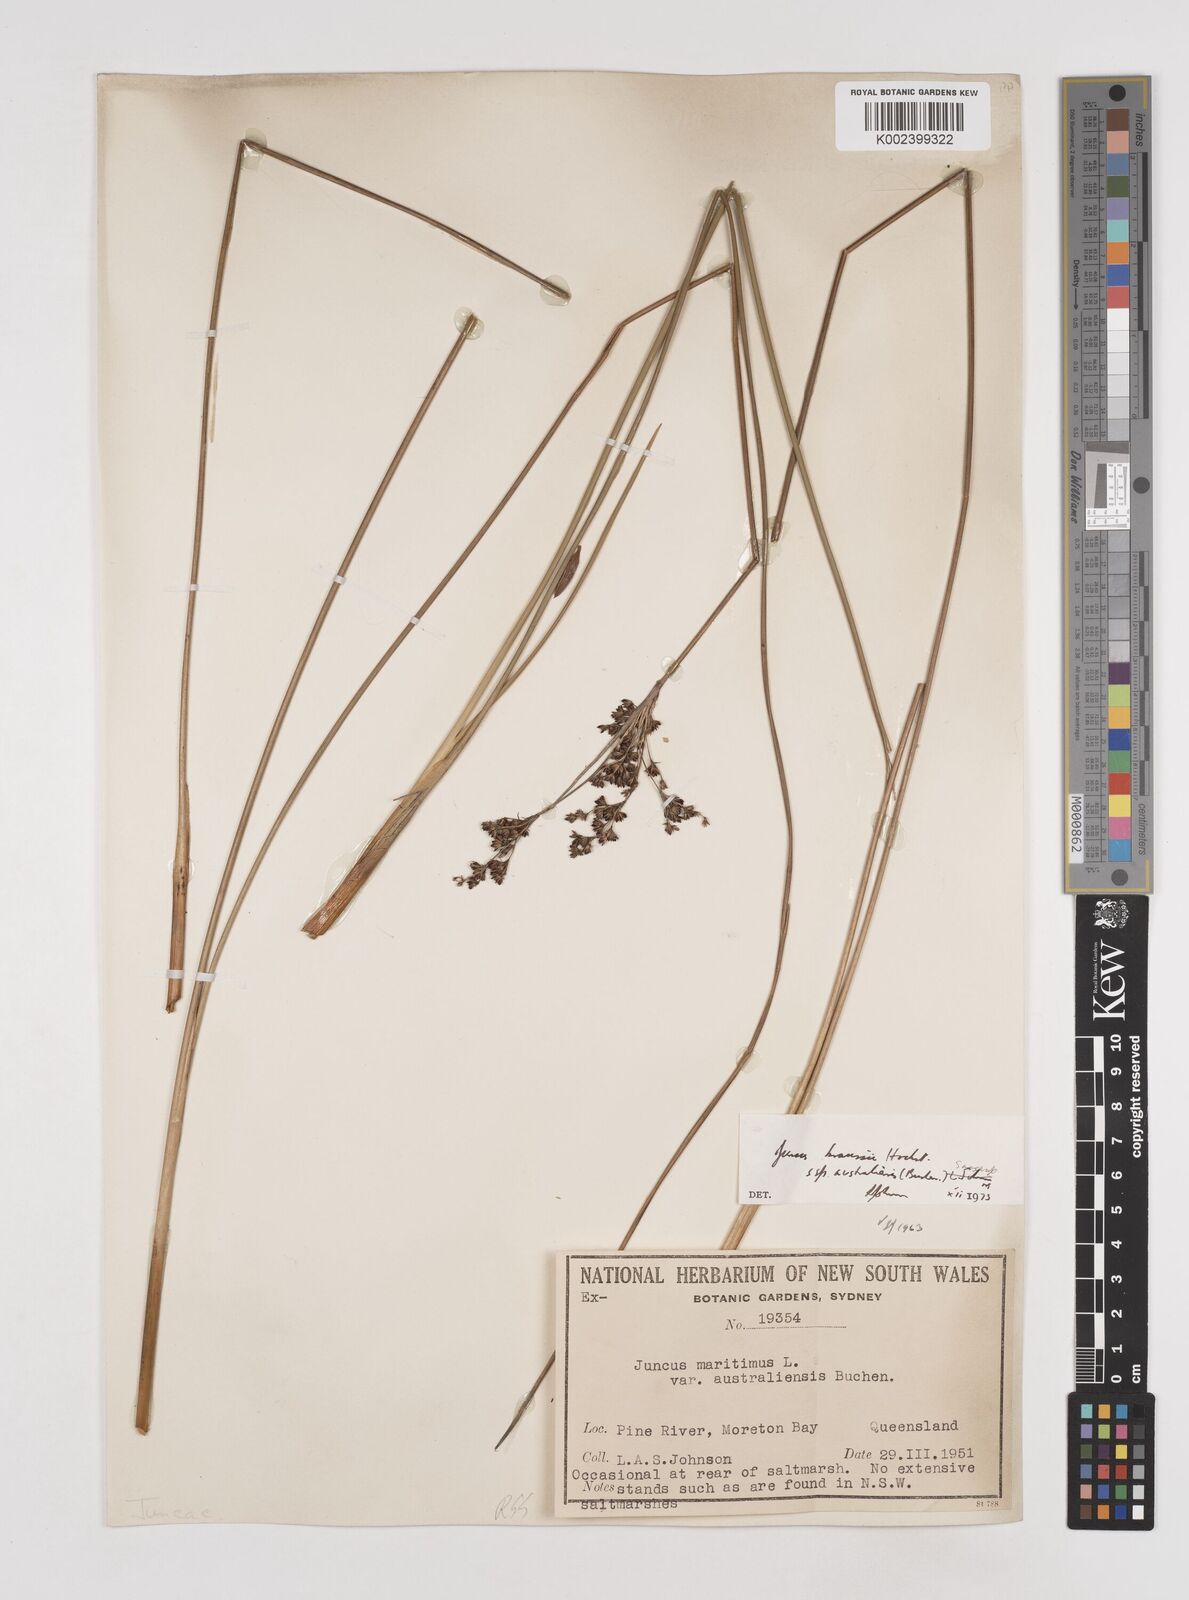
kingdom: Plantae
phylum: Tracheophyta
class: Liliopsida
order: Poales
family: Juncaceae
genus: Juncus
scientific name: Juncus kraussii
